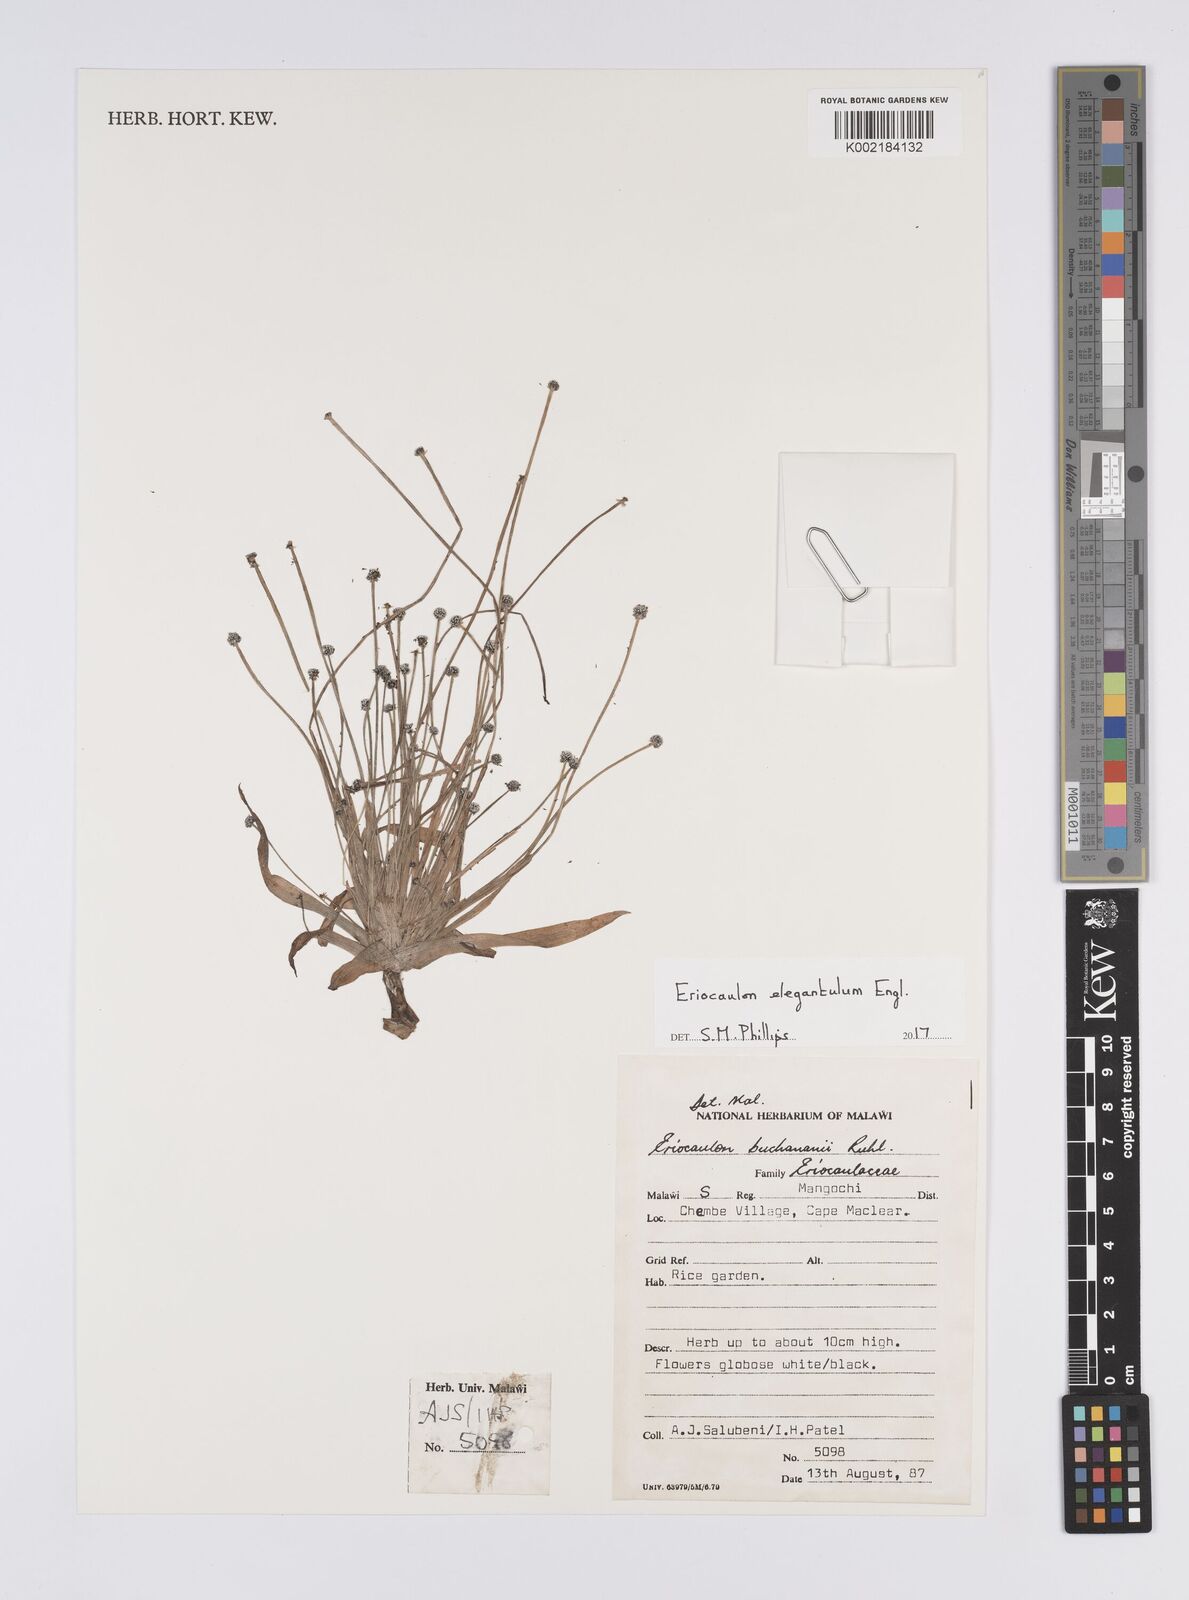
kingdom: Plantae
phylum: Tracheophyta
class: Liliopsida
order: Poales
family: Eriocaulaceae
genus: Eriocaulon
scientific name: Eriocaulon elegantulum
